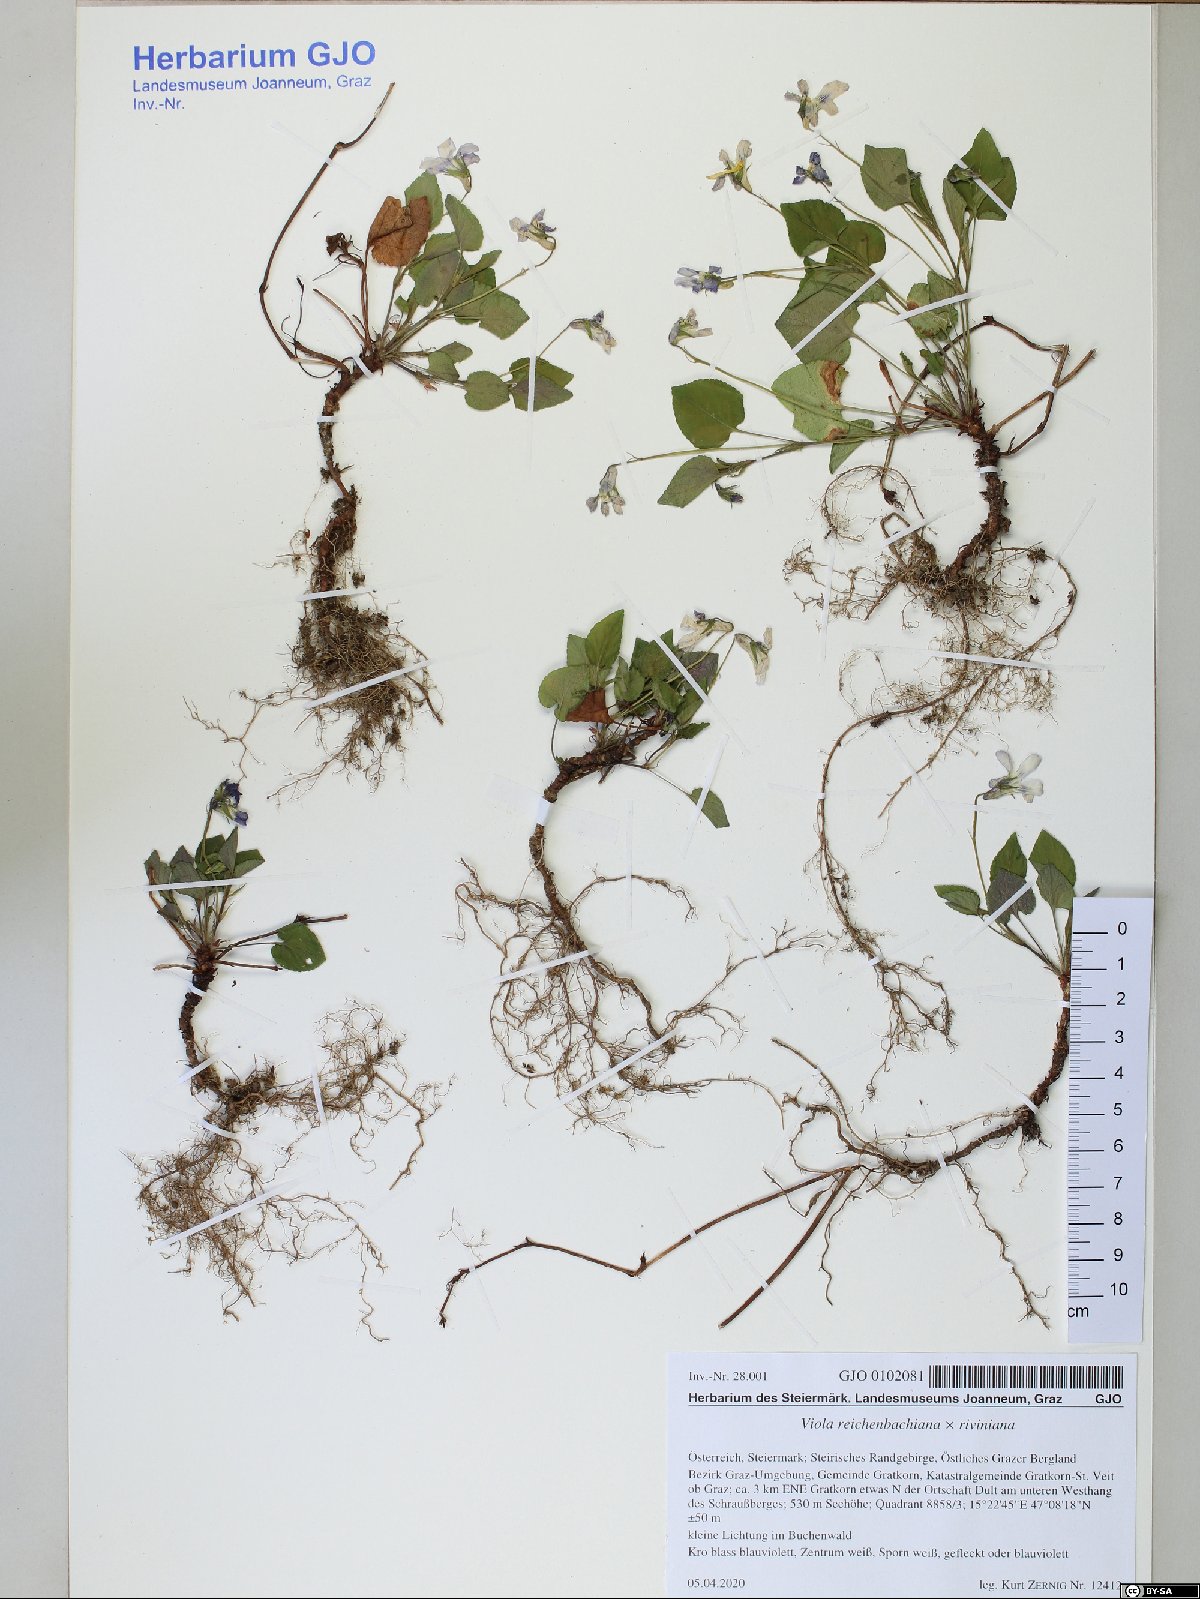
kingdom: Plantae
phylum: Tracheophyta
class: Magnoliopsida
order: Malpighiales
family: Violaceae
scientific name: Violaceae
